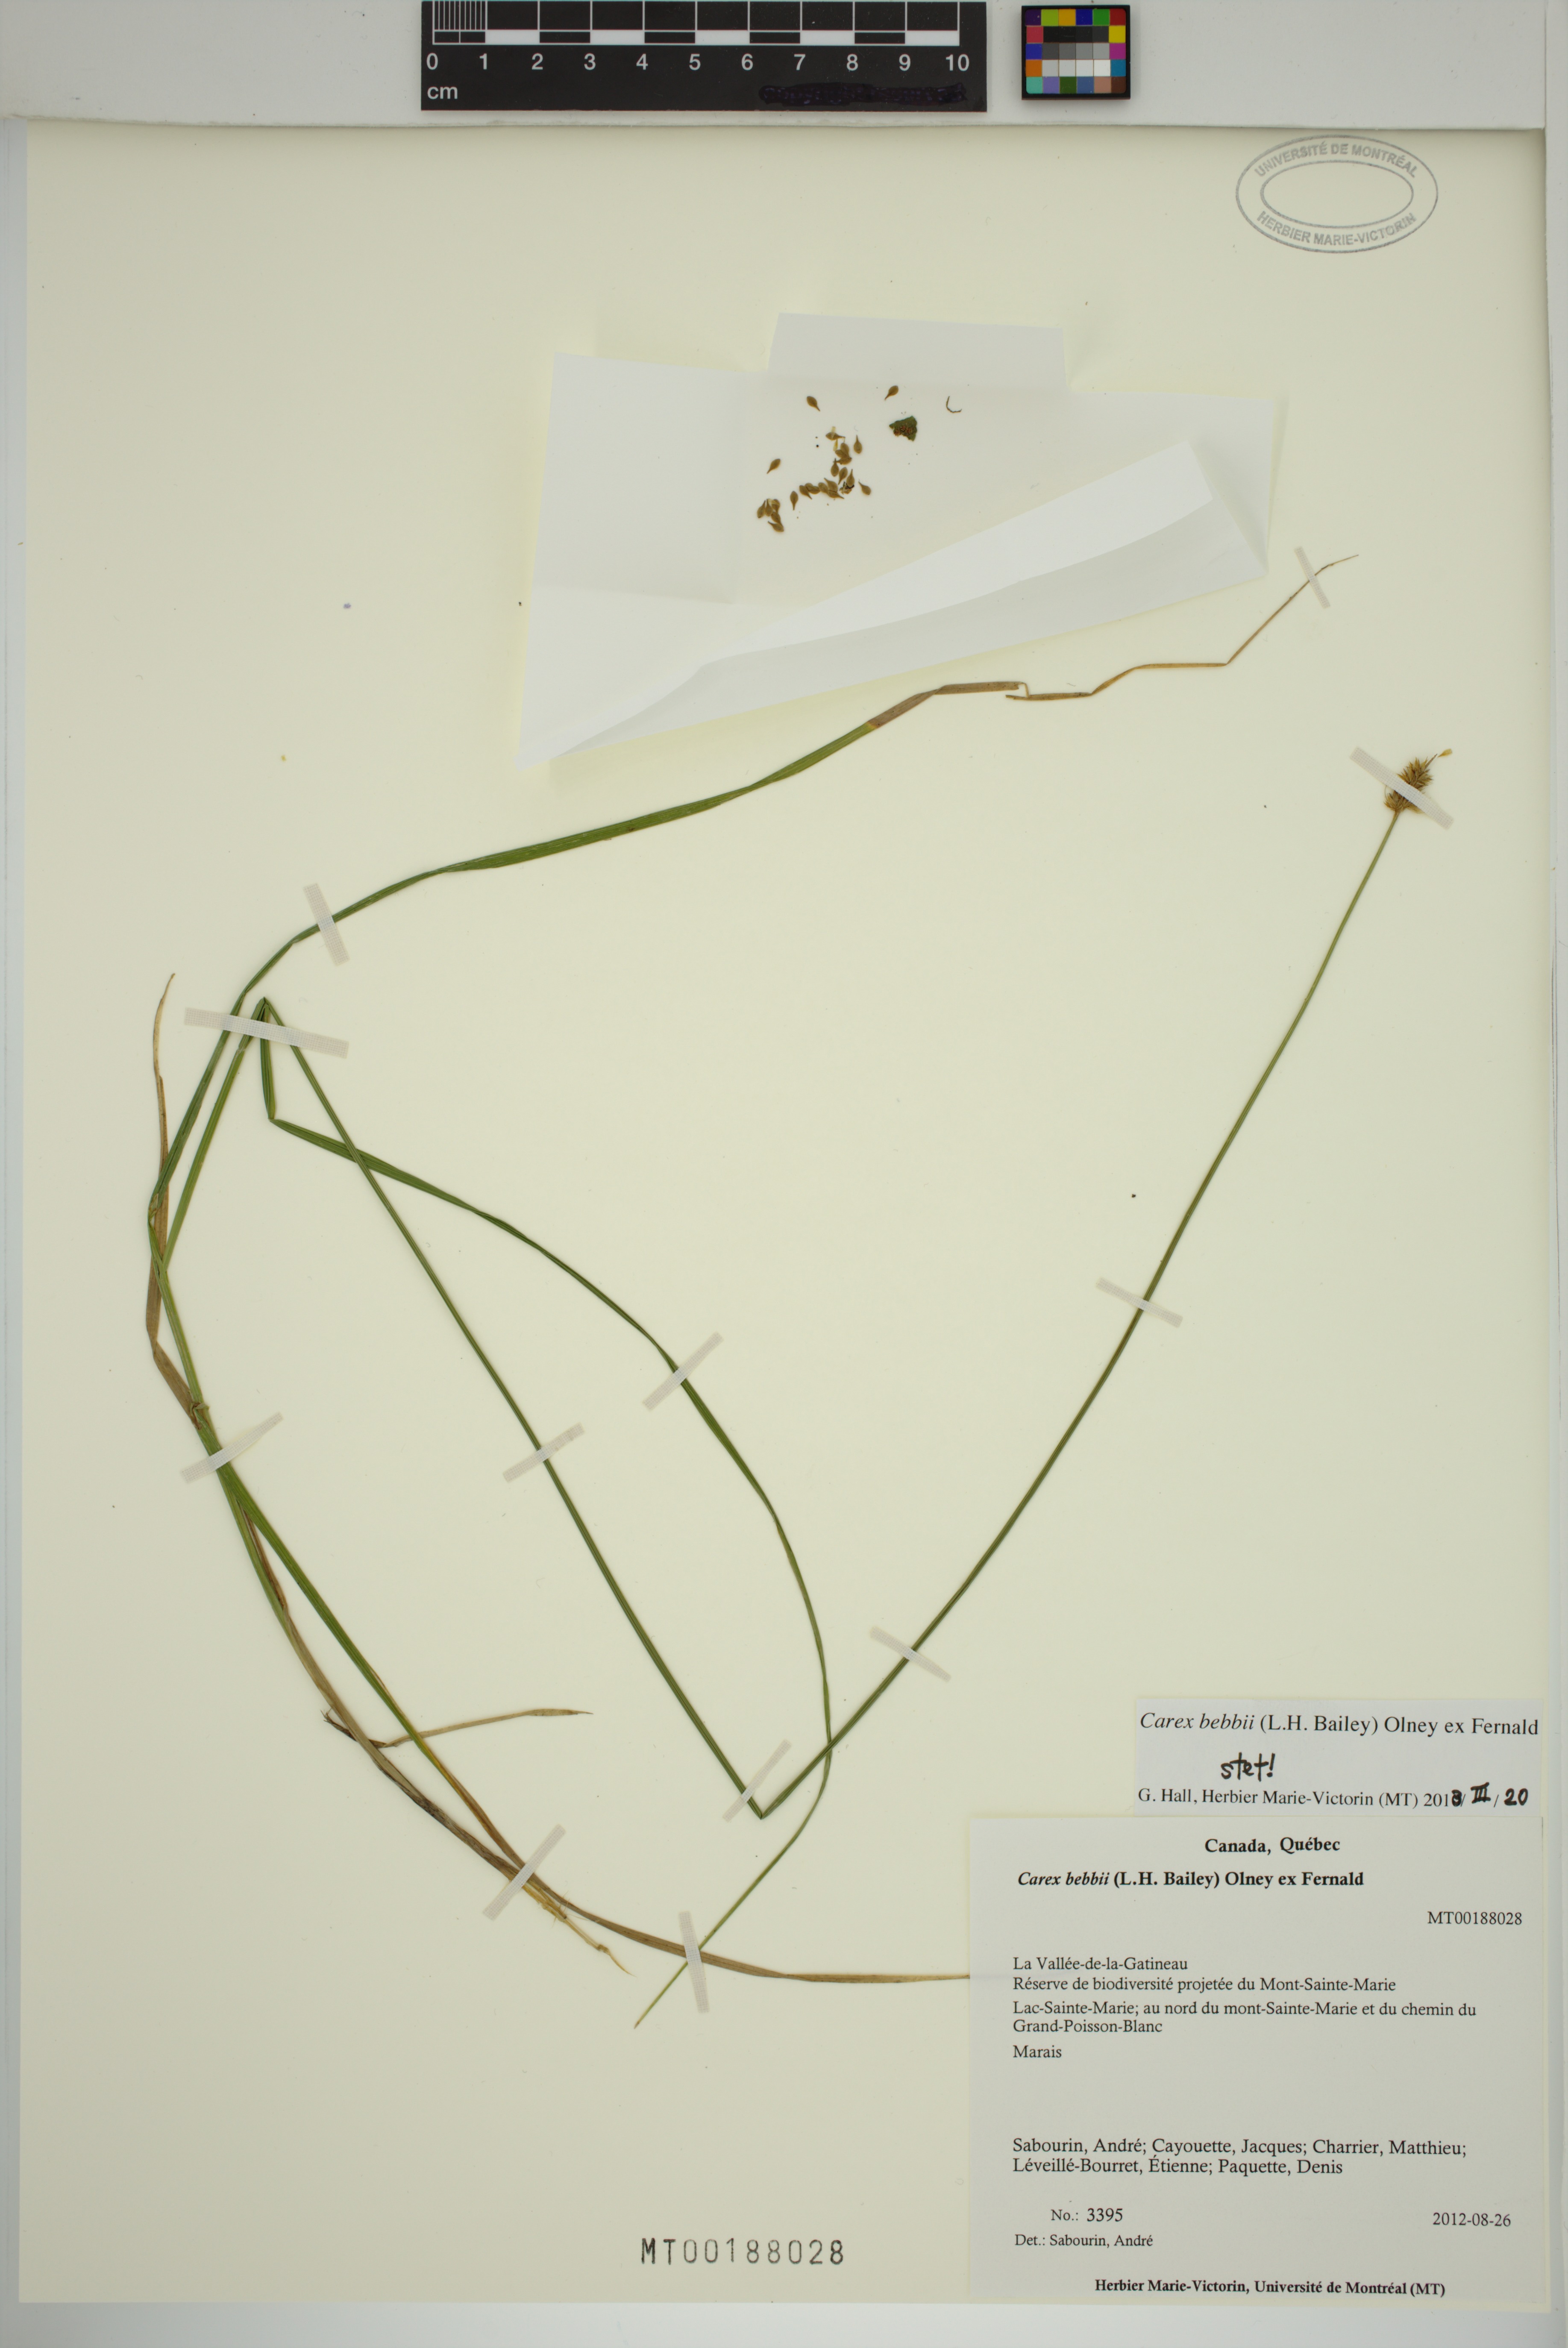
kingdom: Plantae
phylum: Tracheophyta
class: Liliopsida
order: Poales
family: Cyperaceae
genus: Carex
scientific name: Carex bebbii
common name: Bebb's sedge
